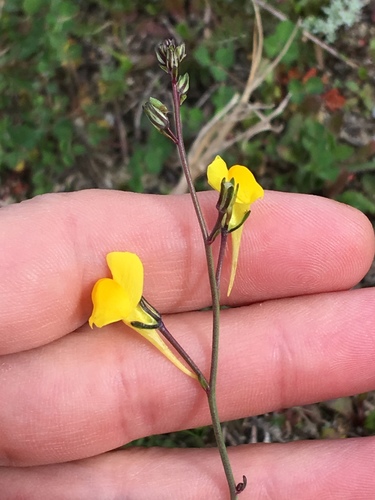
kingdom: Plantae
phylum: Tracheophyta
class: Magnoliopsida
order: Lamiales
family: Plantaginaceae
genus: Linaria
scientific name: Linaria spartea
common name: Ballast toadflax
